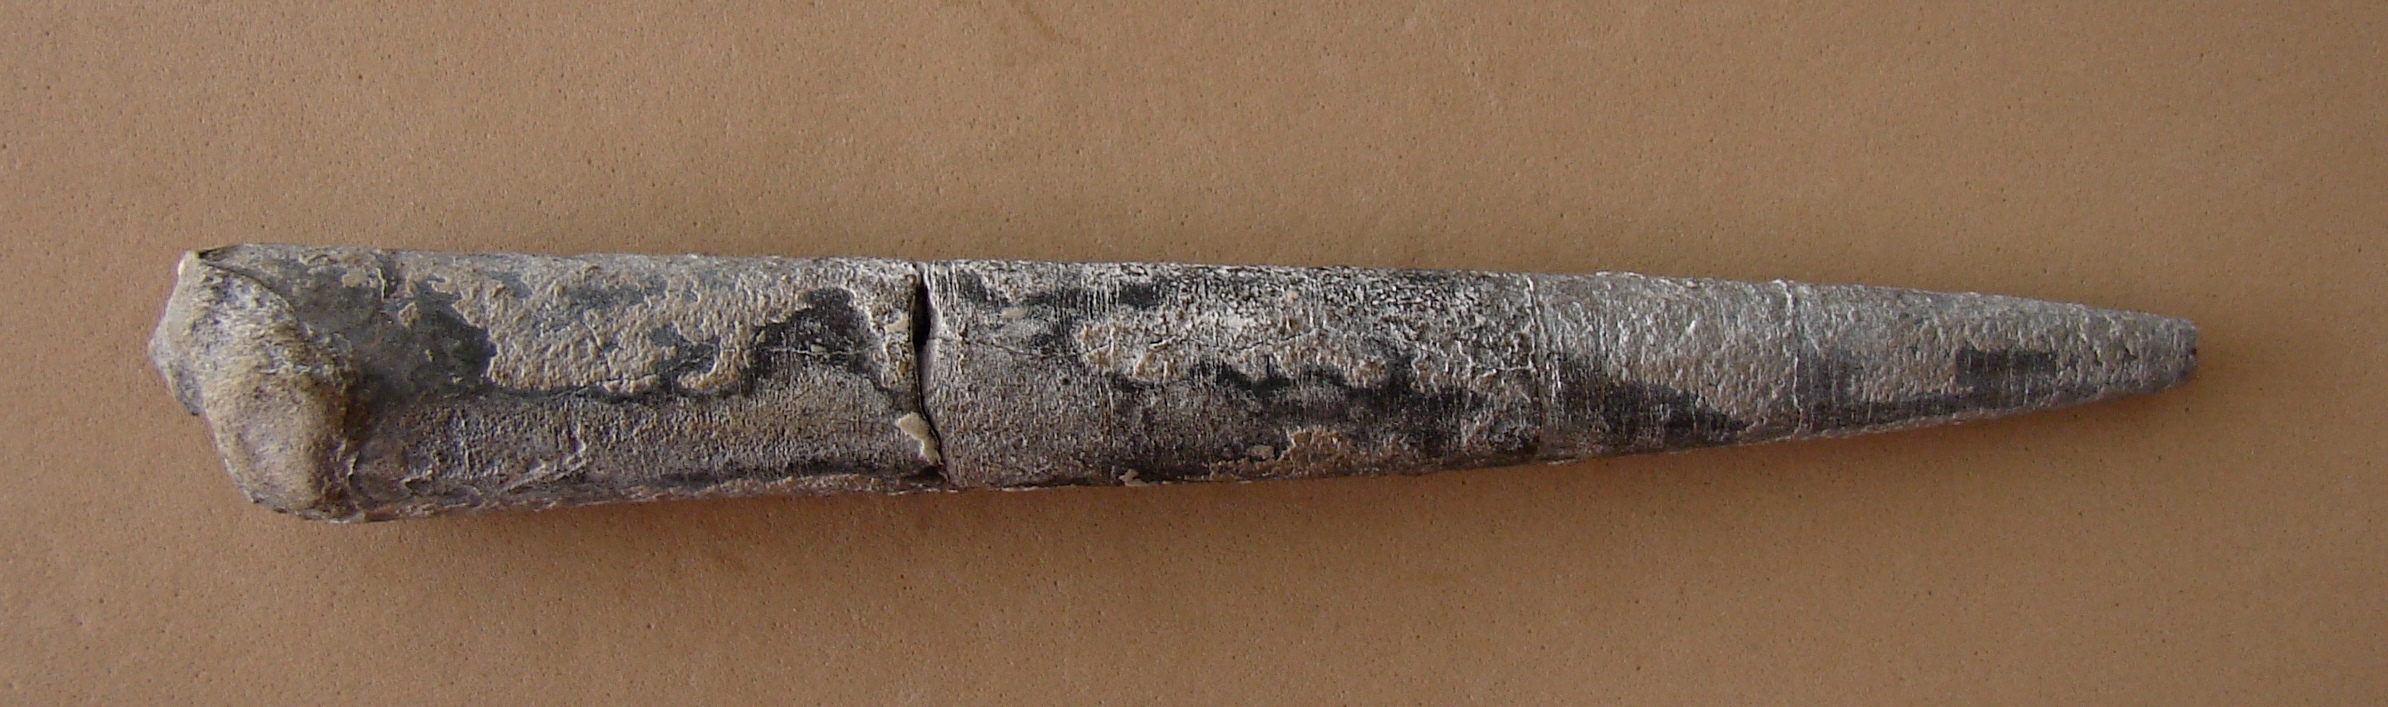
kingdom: Animalia
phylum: Mollusca
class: Cephalopoda
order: Belemnitida
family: Megateuthididae
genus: Acrocoelites
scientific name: Acrocoelites ilminstrensis
